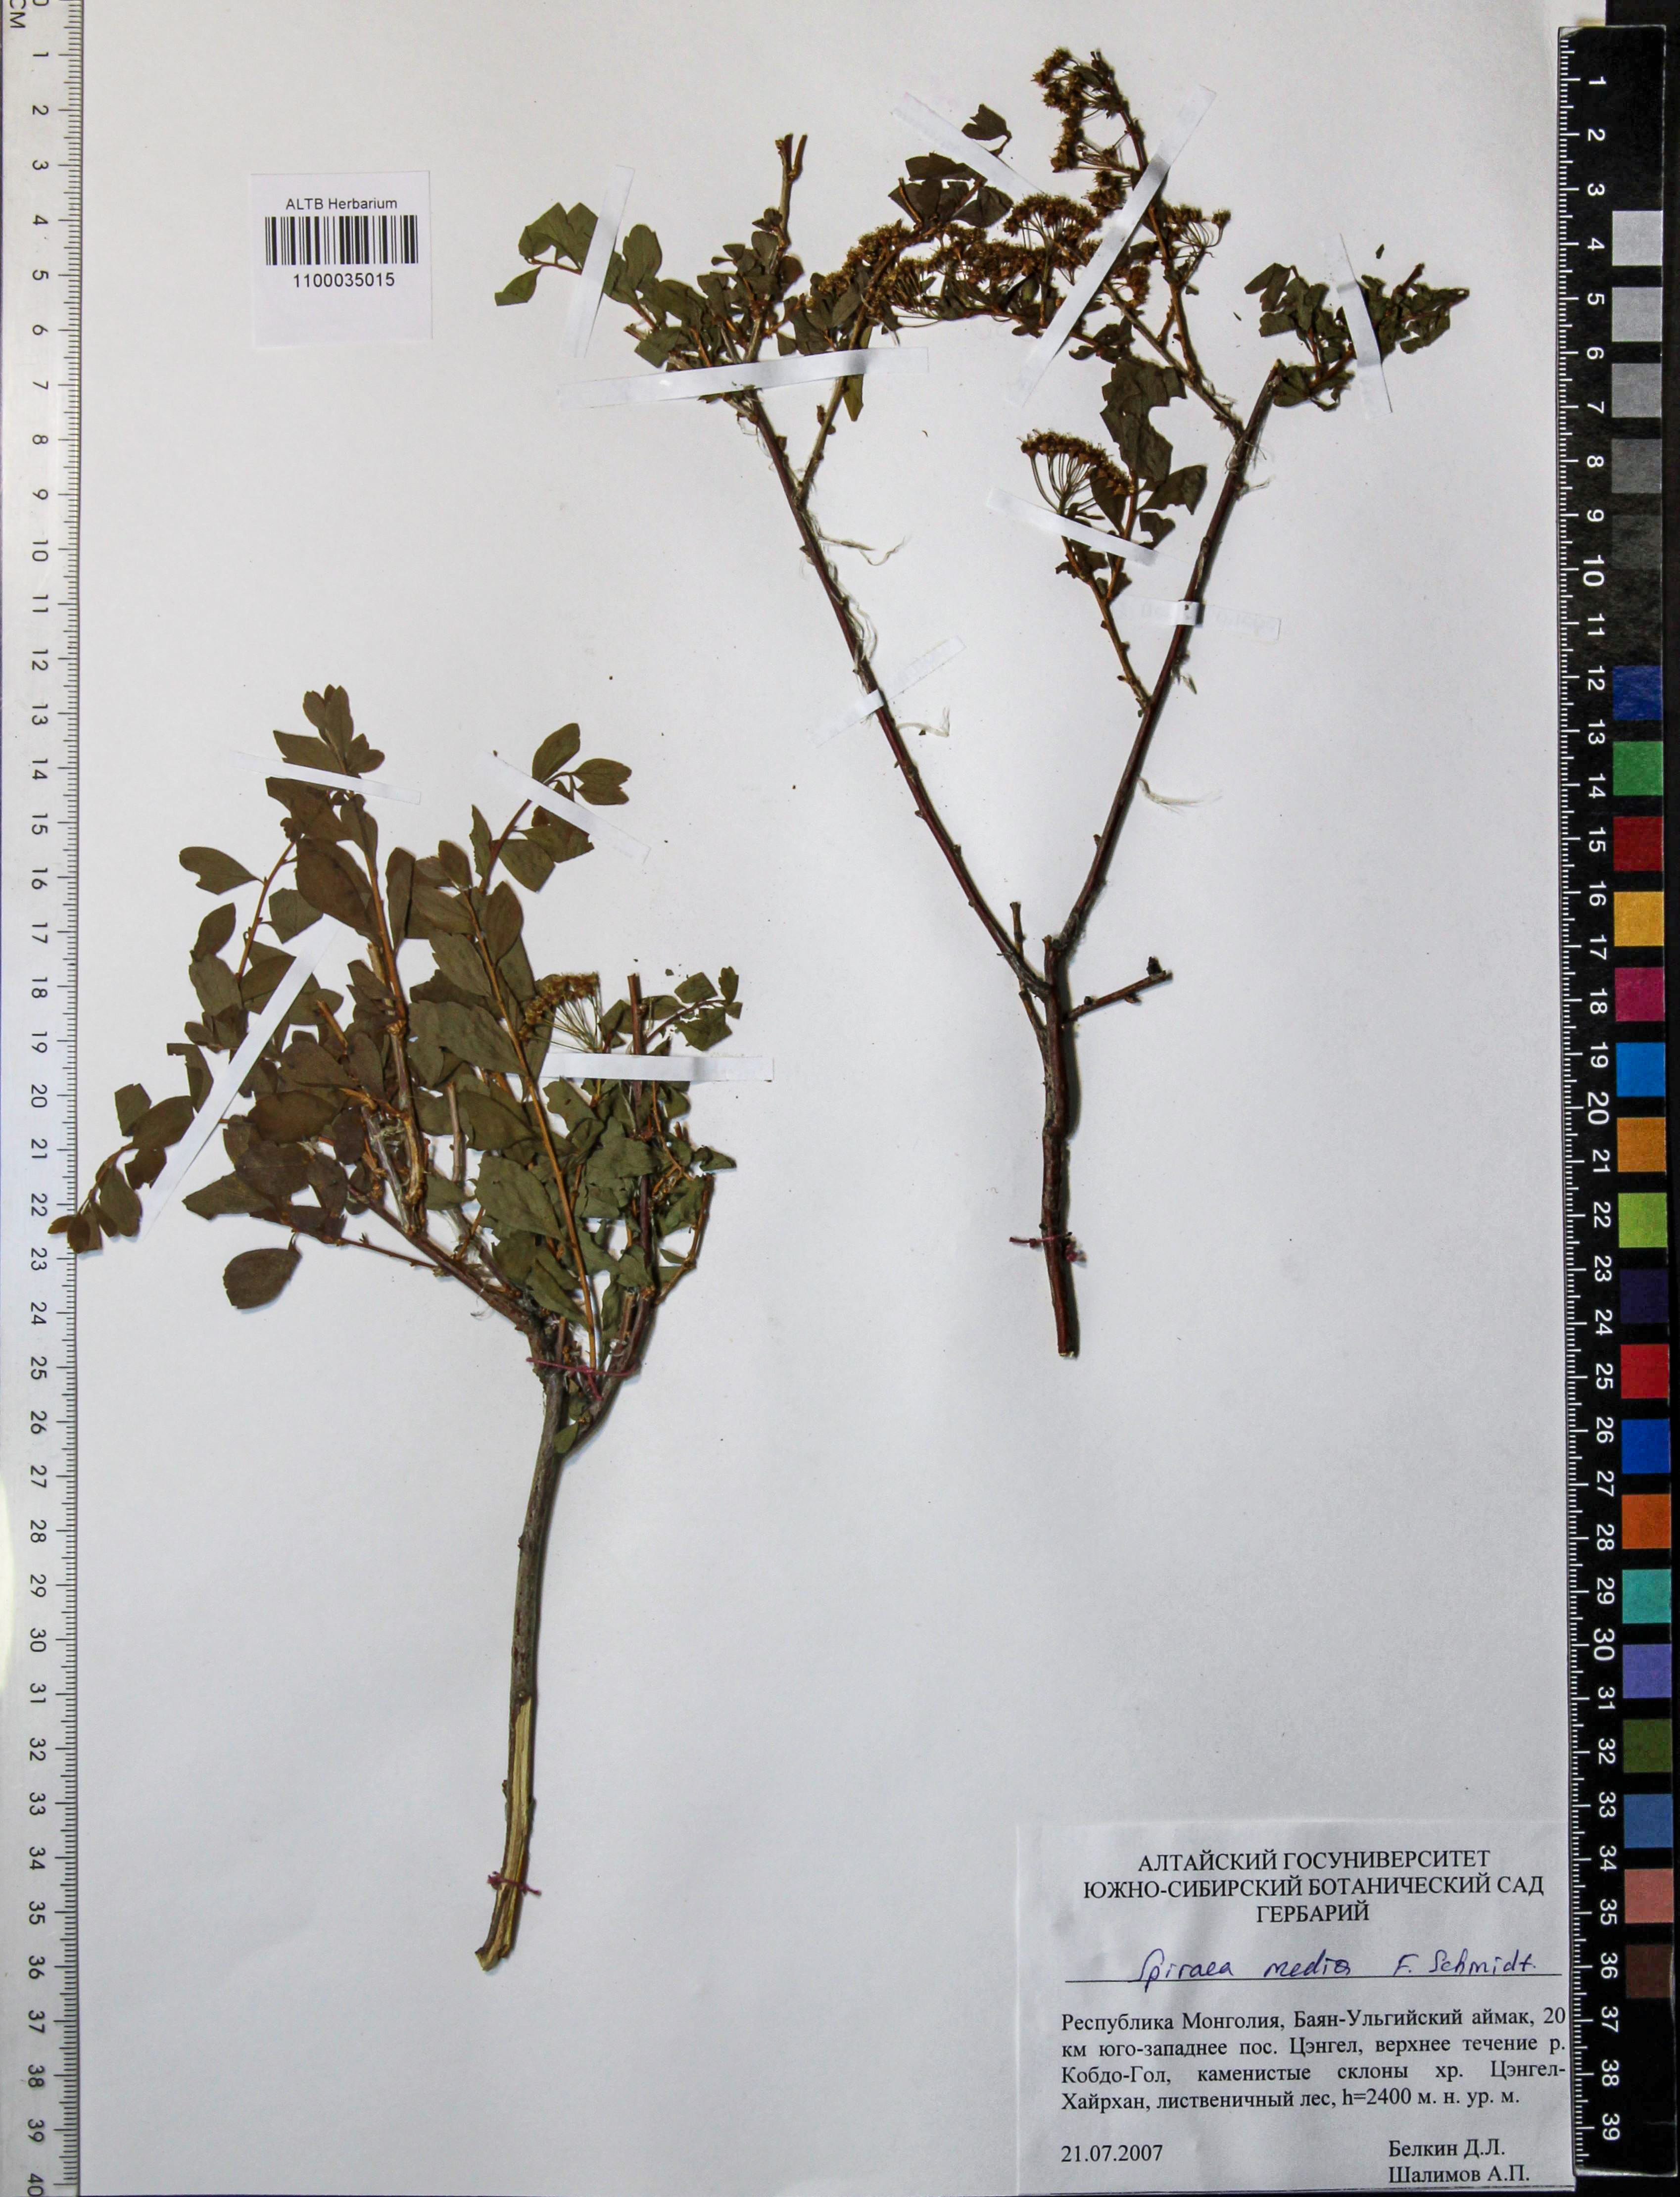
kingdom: Plantae
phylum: Tracheophyta
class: Magnoliopsida
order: Rosales
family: Rosaceae
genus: Spiraea
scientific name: Spiraea media
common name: Russian spiraea
